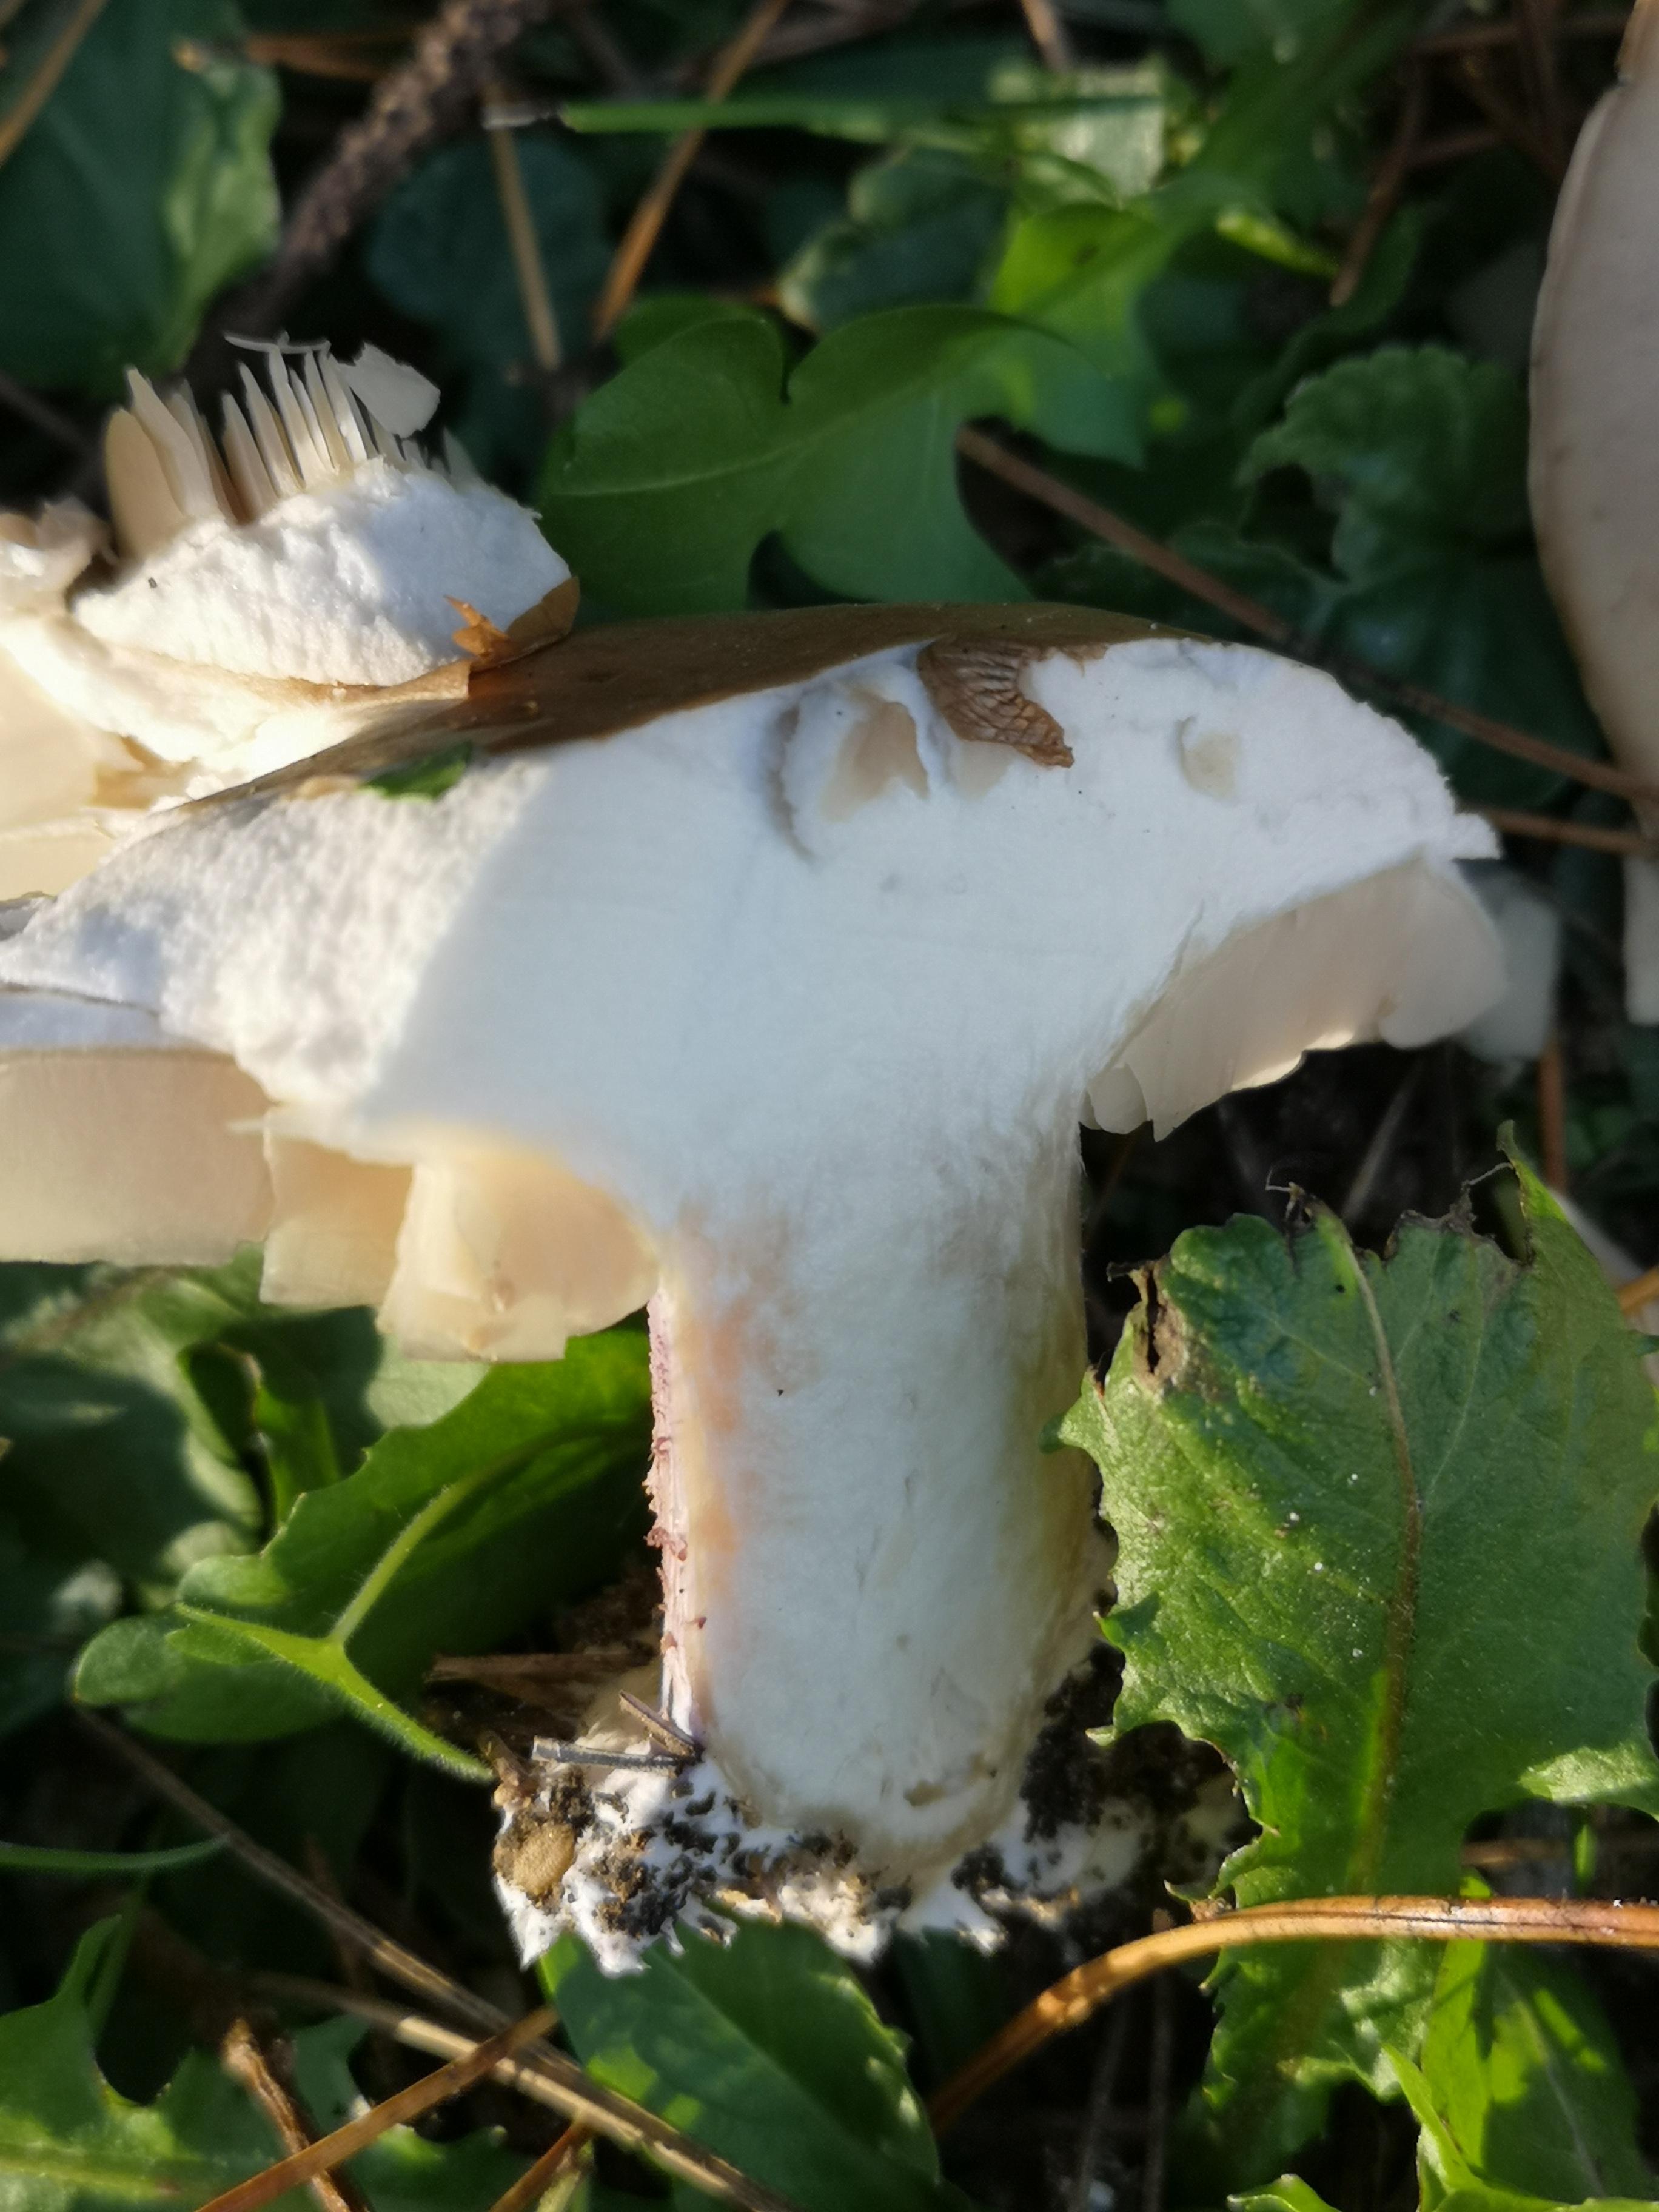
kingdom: Fungi
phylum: Basidiomycota
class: Agaricomycetes
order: Agaricales
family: Tricholomataceae
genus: Lepista
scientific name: Lepista personata
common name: bleg hekseringshat
